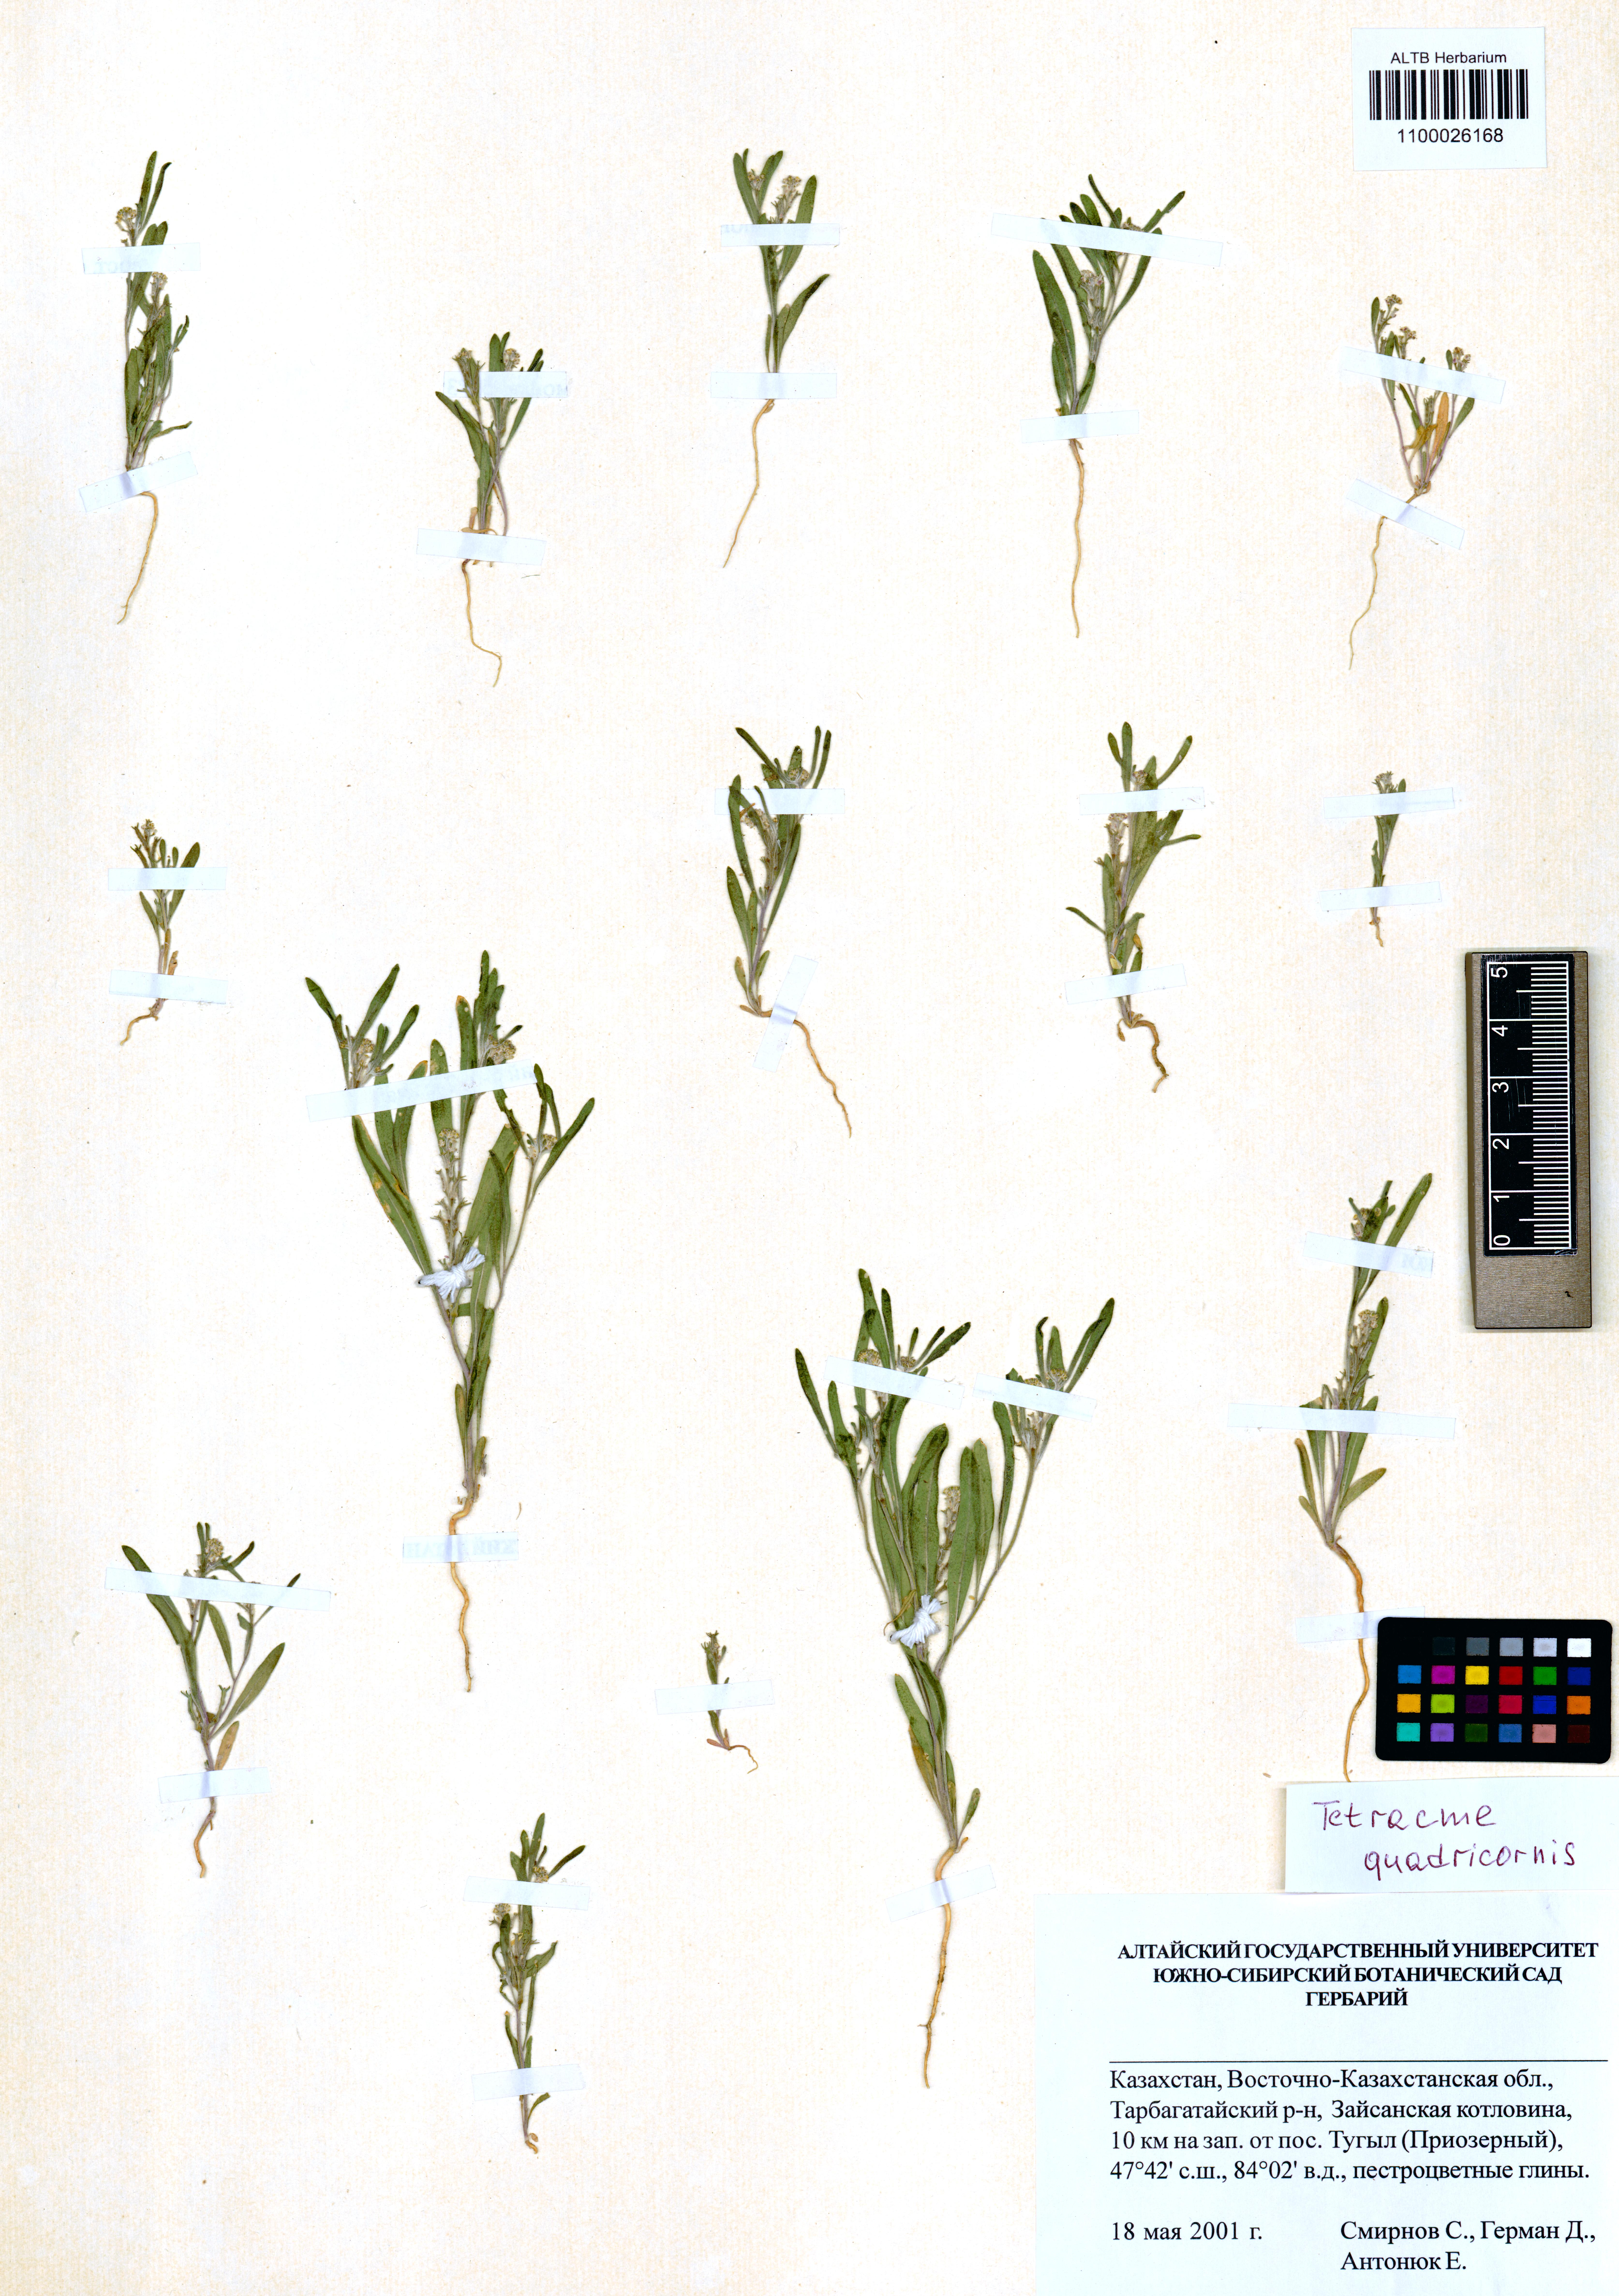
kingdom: Plantae
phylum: Tracheophyta
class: Magnoliopsida
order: Brassicales
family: Brassicaceae
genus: Tetracme
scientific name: Tetracme quadricornis
